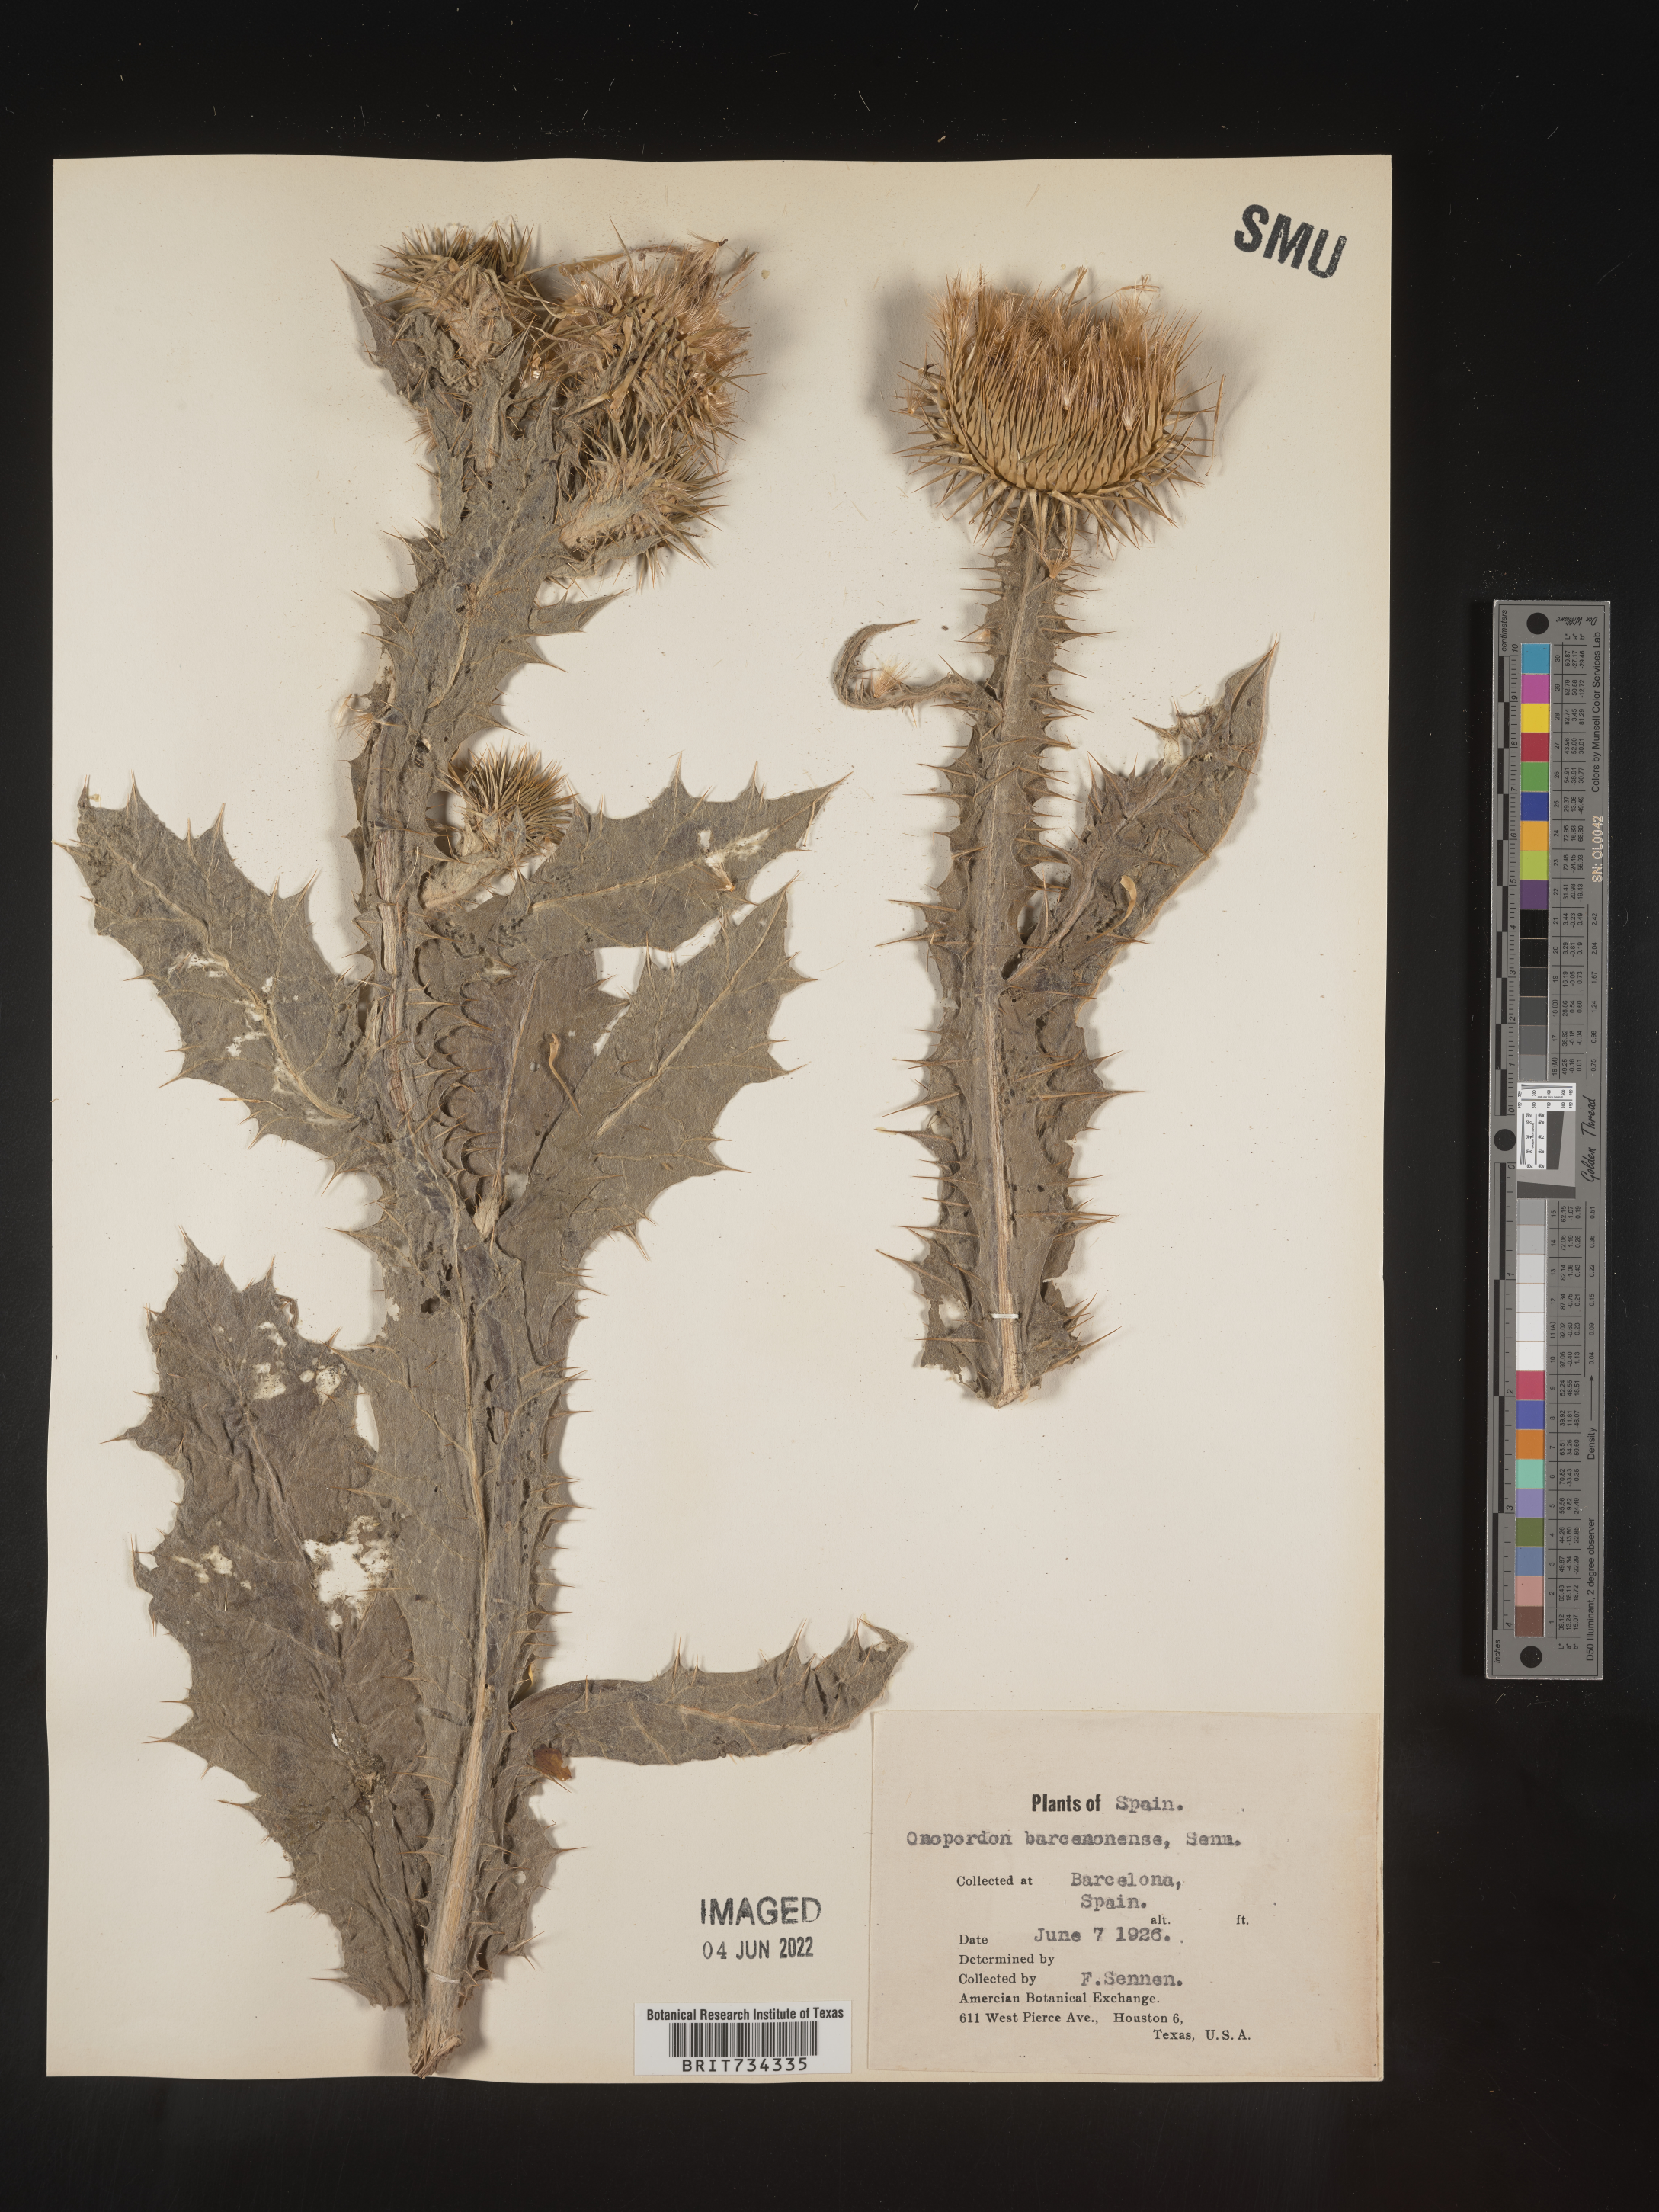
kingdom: Plantae
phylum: Tracheophyta
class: Magnoliopsida
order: Asterales
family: Asteraceae
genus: Onopordum
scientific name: Onopordum
